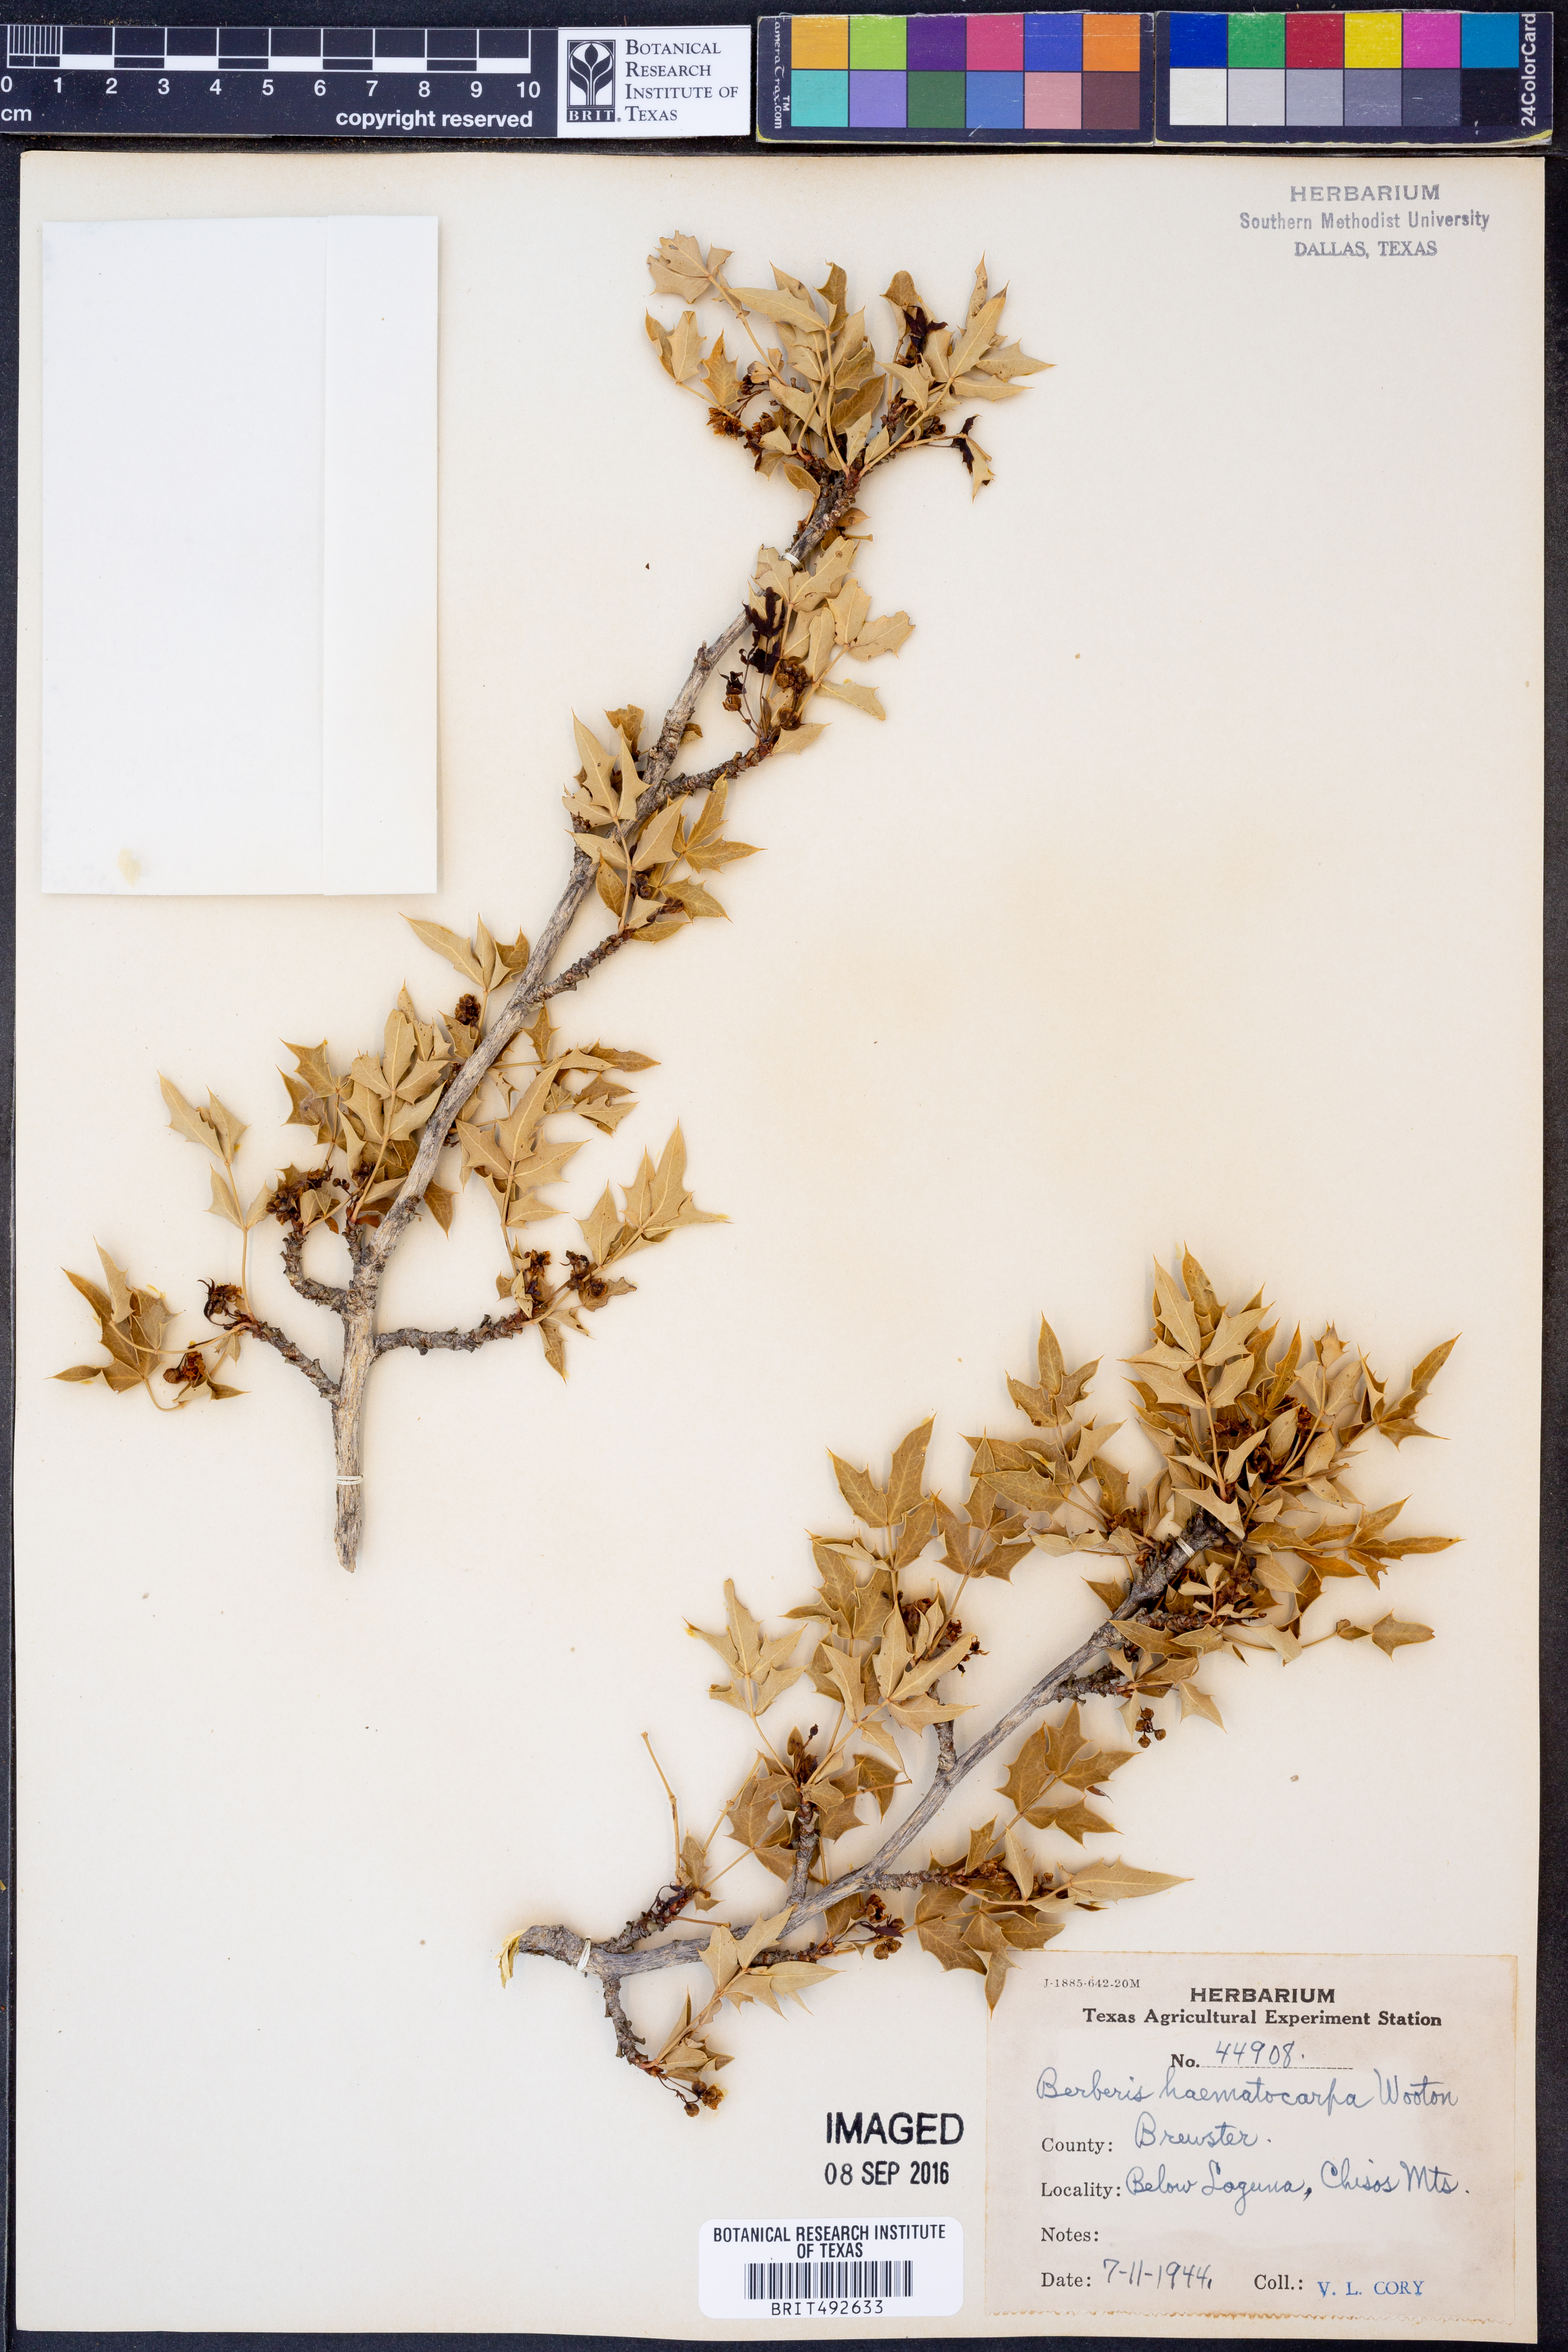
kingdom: Plantae
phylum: Tracheophyta
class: Magnoliopsida
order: Ranunculales
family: Berberidaceae
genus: Alloberberis
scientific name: Alloberberis haematocarpa
